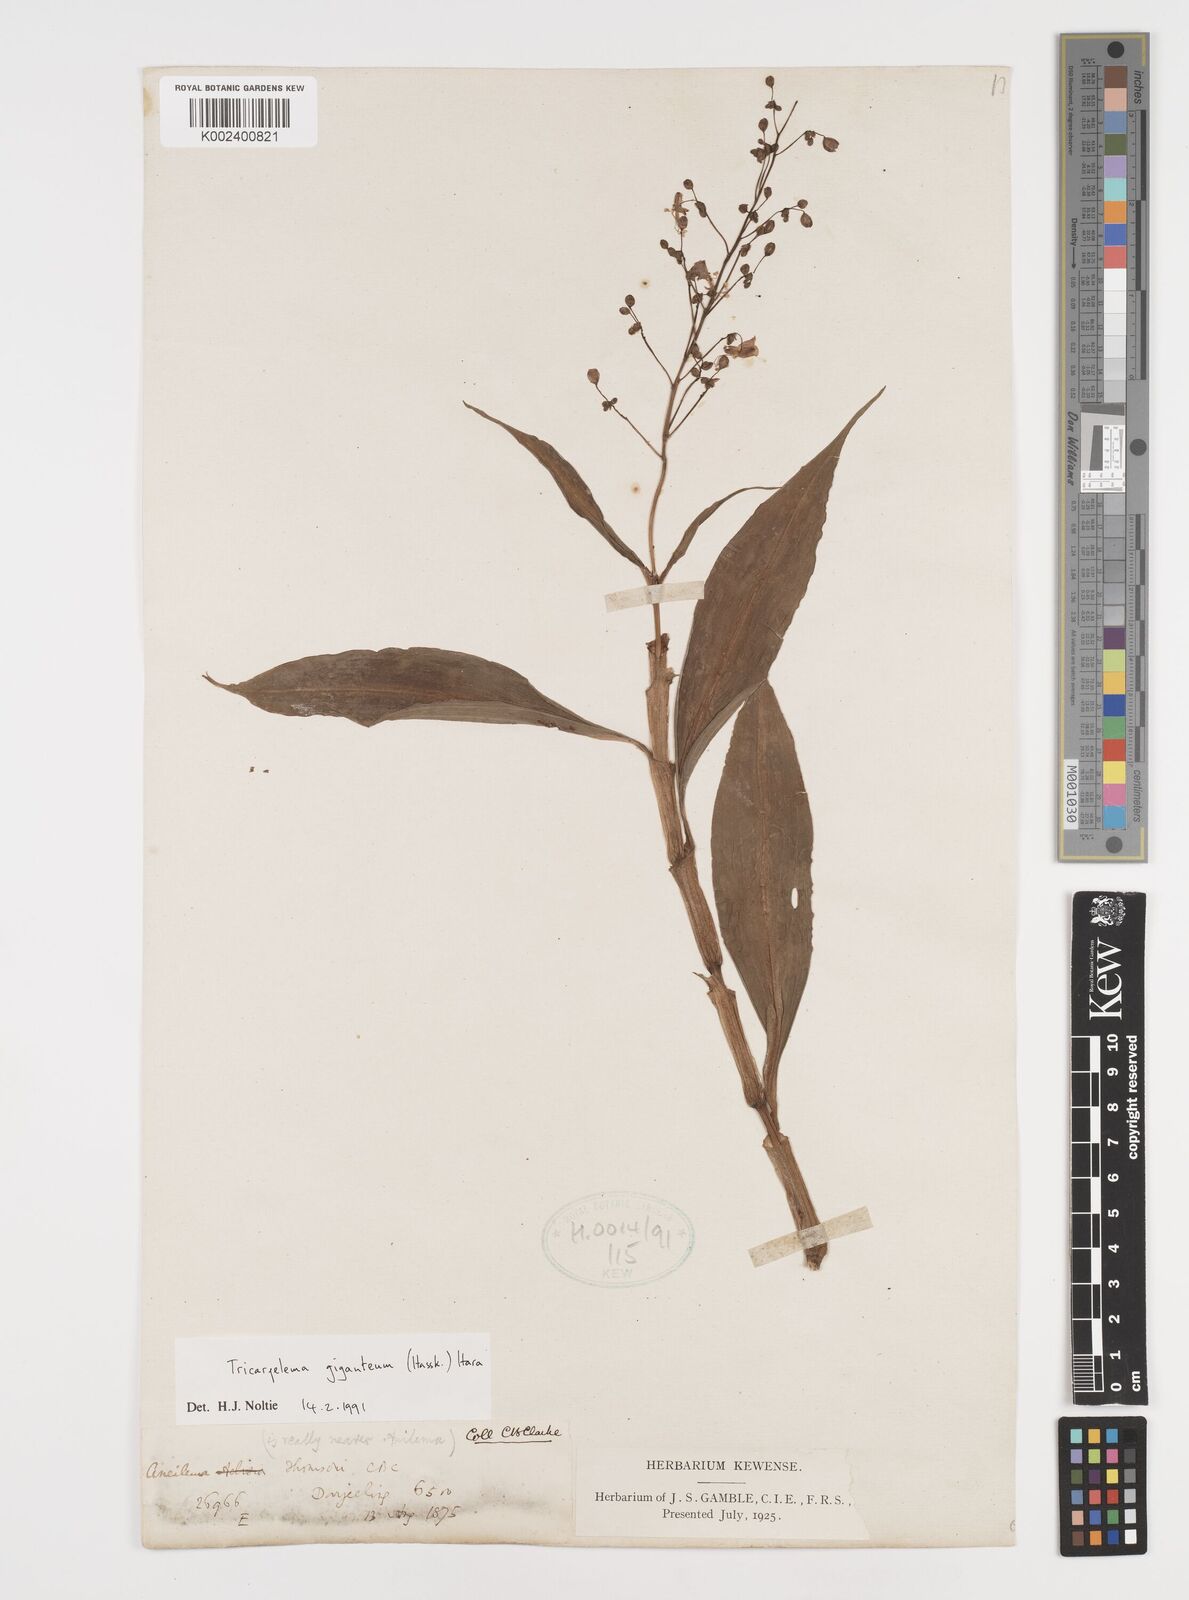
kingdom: Plantae
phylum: Tracheophyta
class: Liliopsida
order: Commelinales
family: Commelinaceae
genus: Tricarpelema
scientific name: Tricarpelema giganteum
